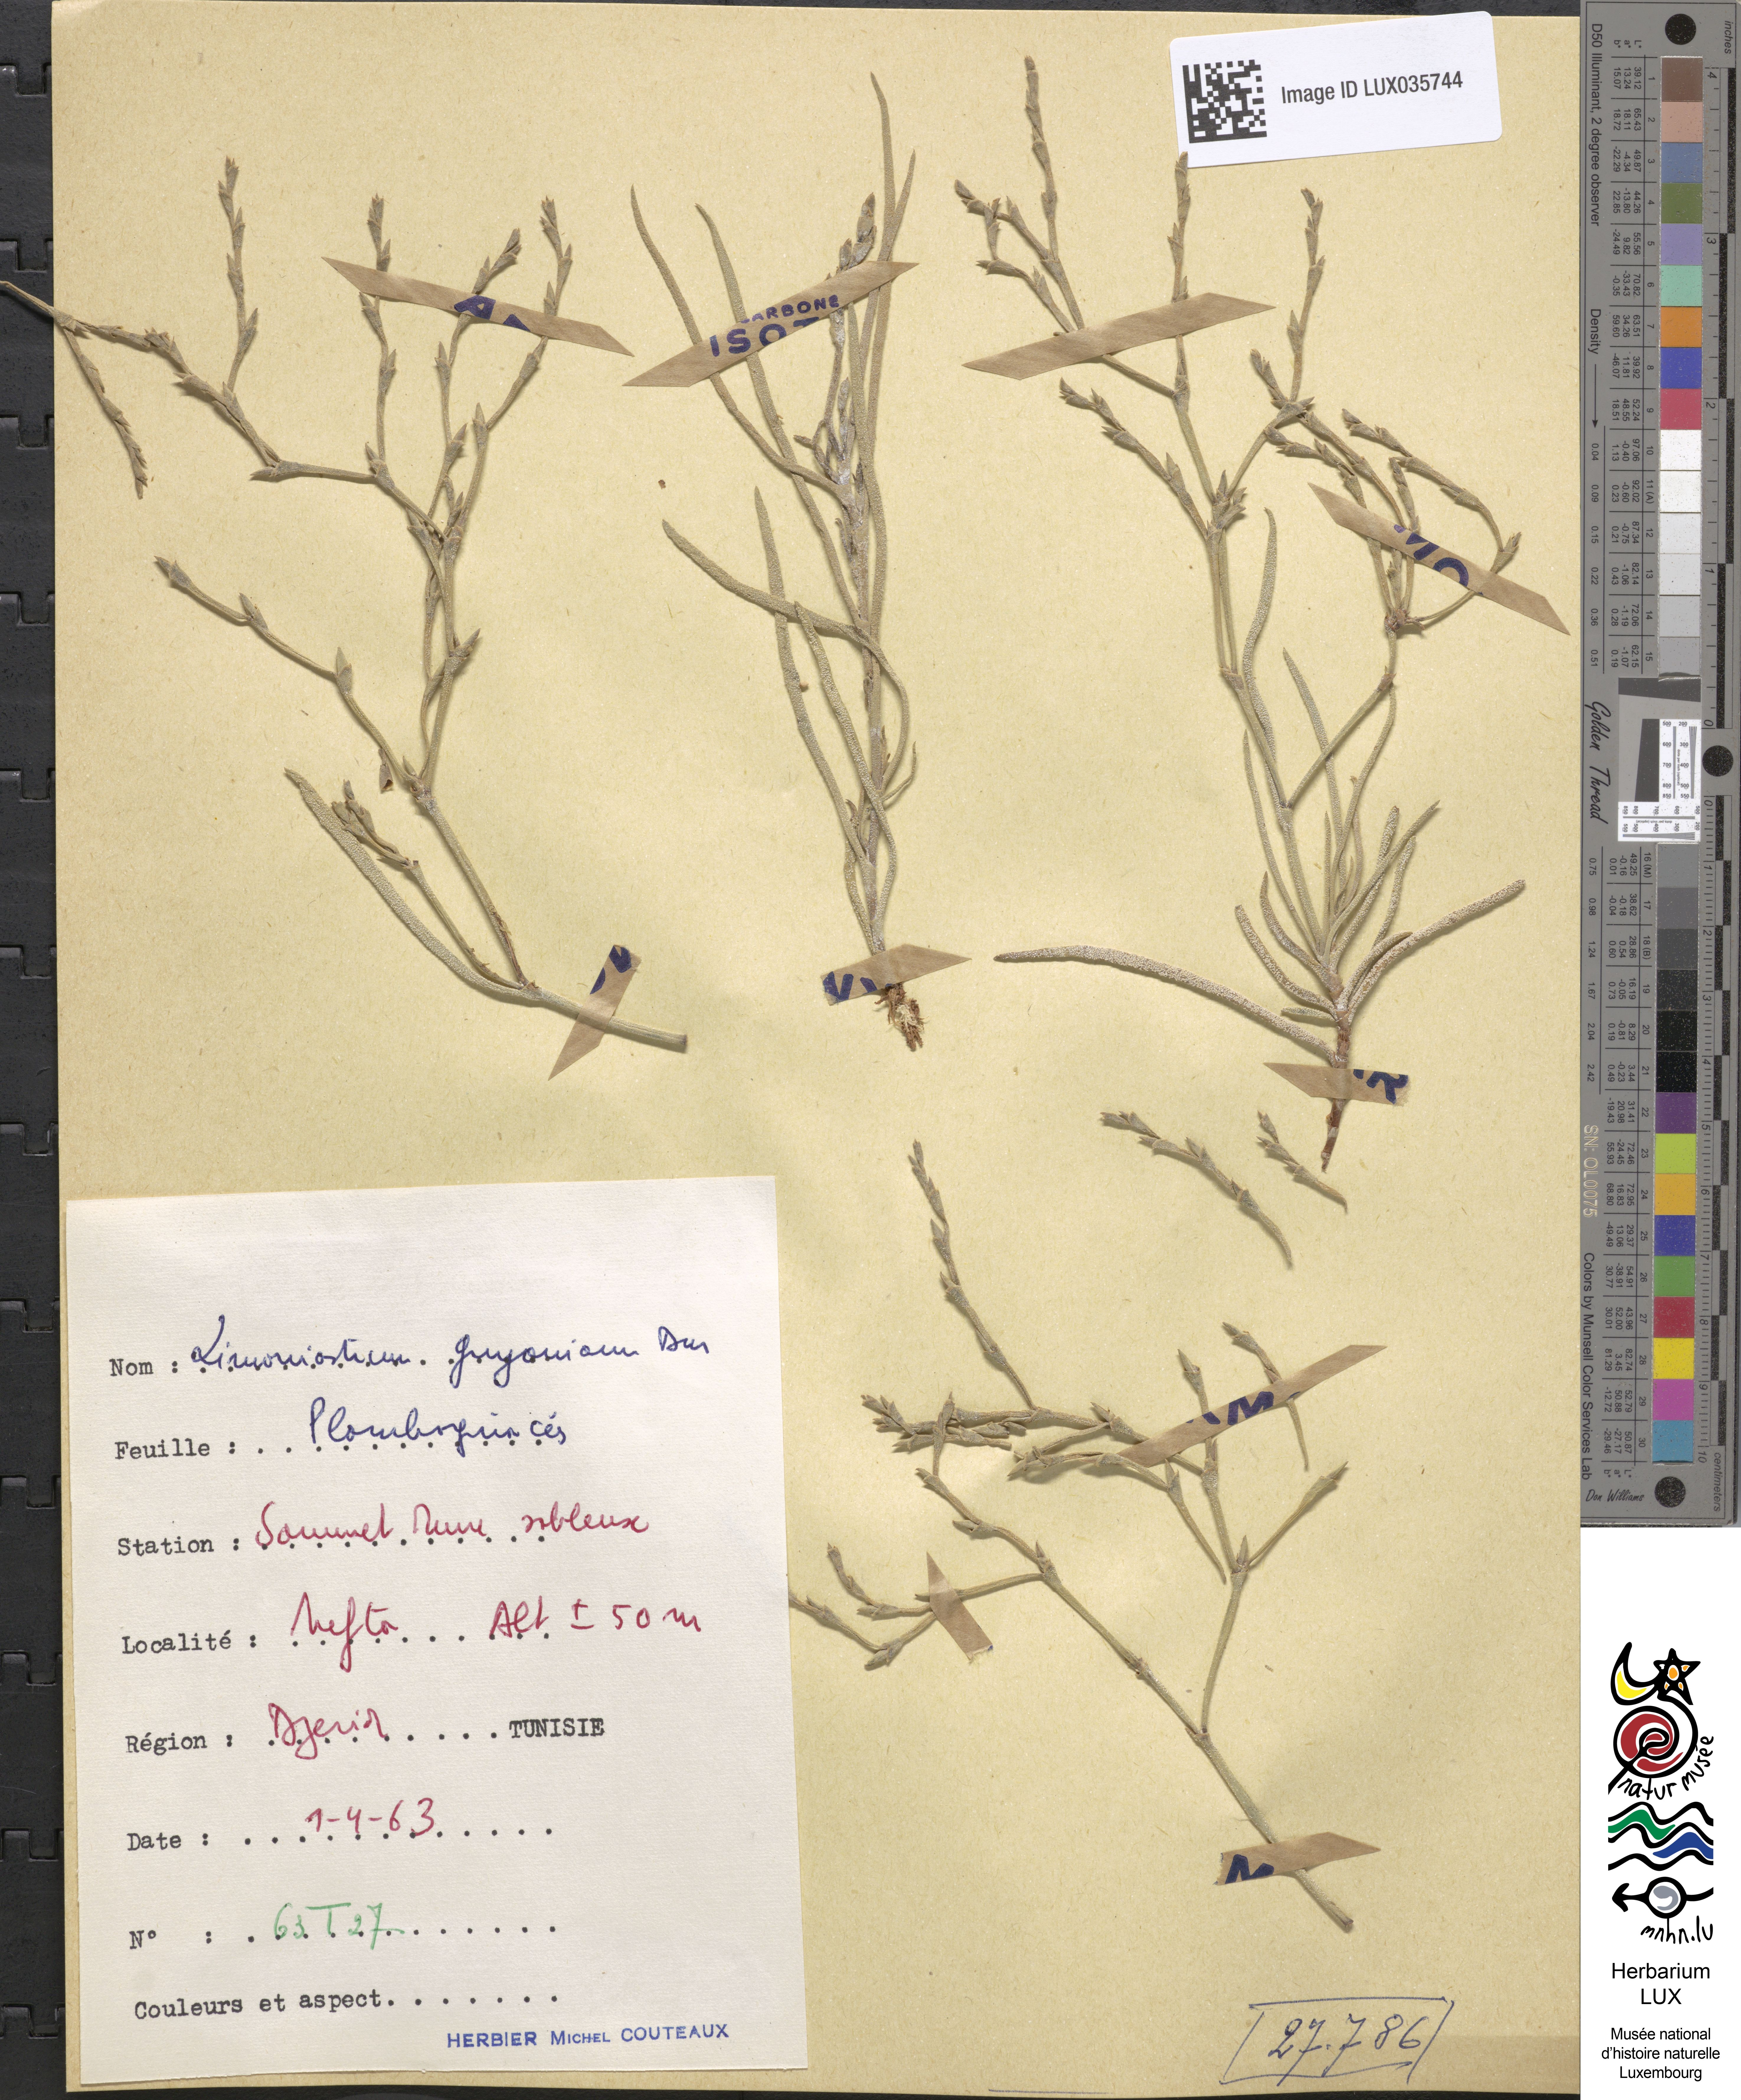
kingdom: Plantae
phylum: Tracheophyta
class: Magnoliopsida
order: Caryophyllales
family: Plumbaginaceae
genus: Limoniastrum
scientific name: Limoniastrum
